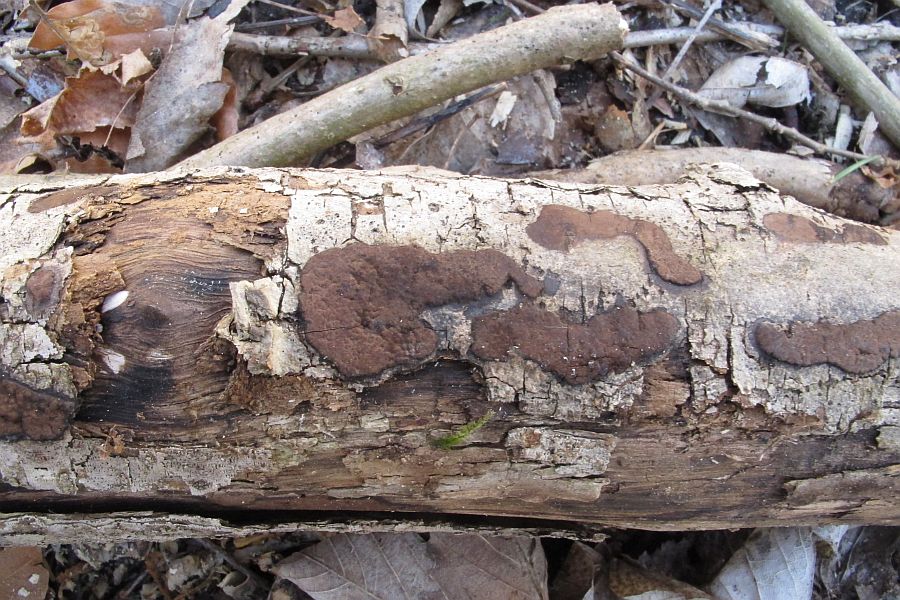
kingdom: Fungi
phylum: Ascomycota
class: Sordariomycetes
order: Xylariales
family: Hypoxylaceae
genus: Hypoxylon
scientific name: Hypoxylon petriniae
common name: nedsænket kulbær
